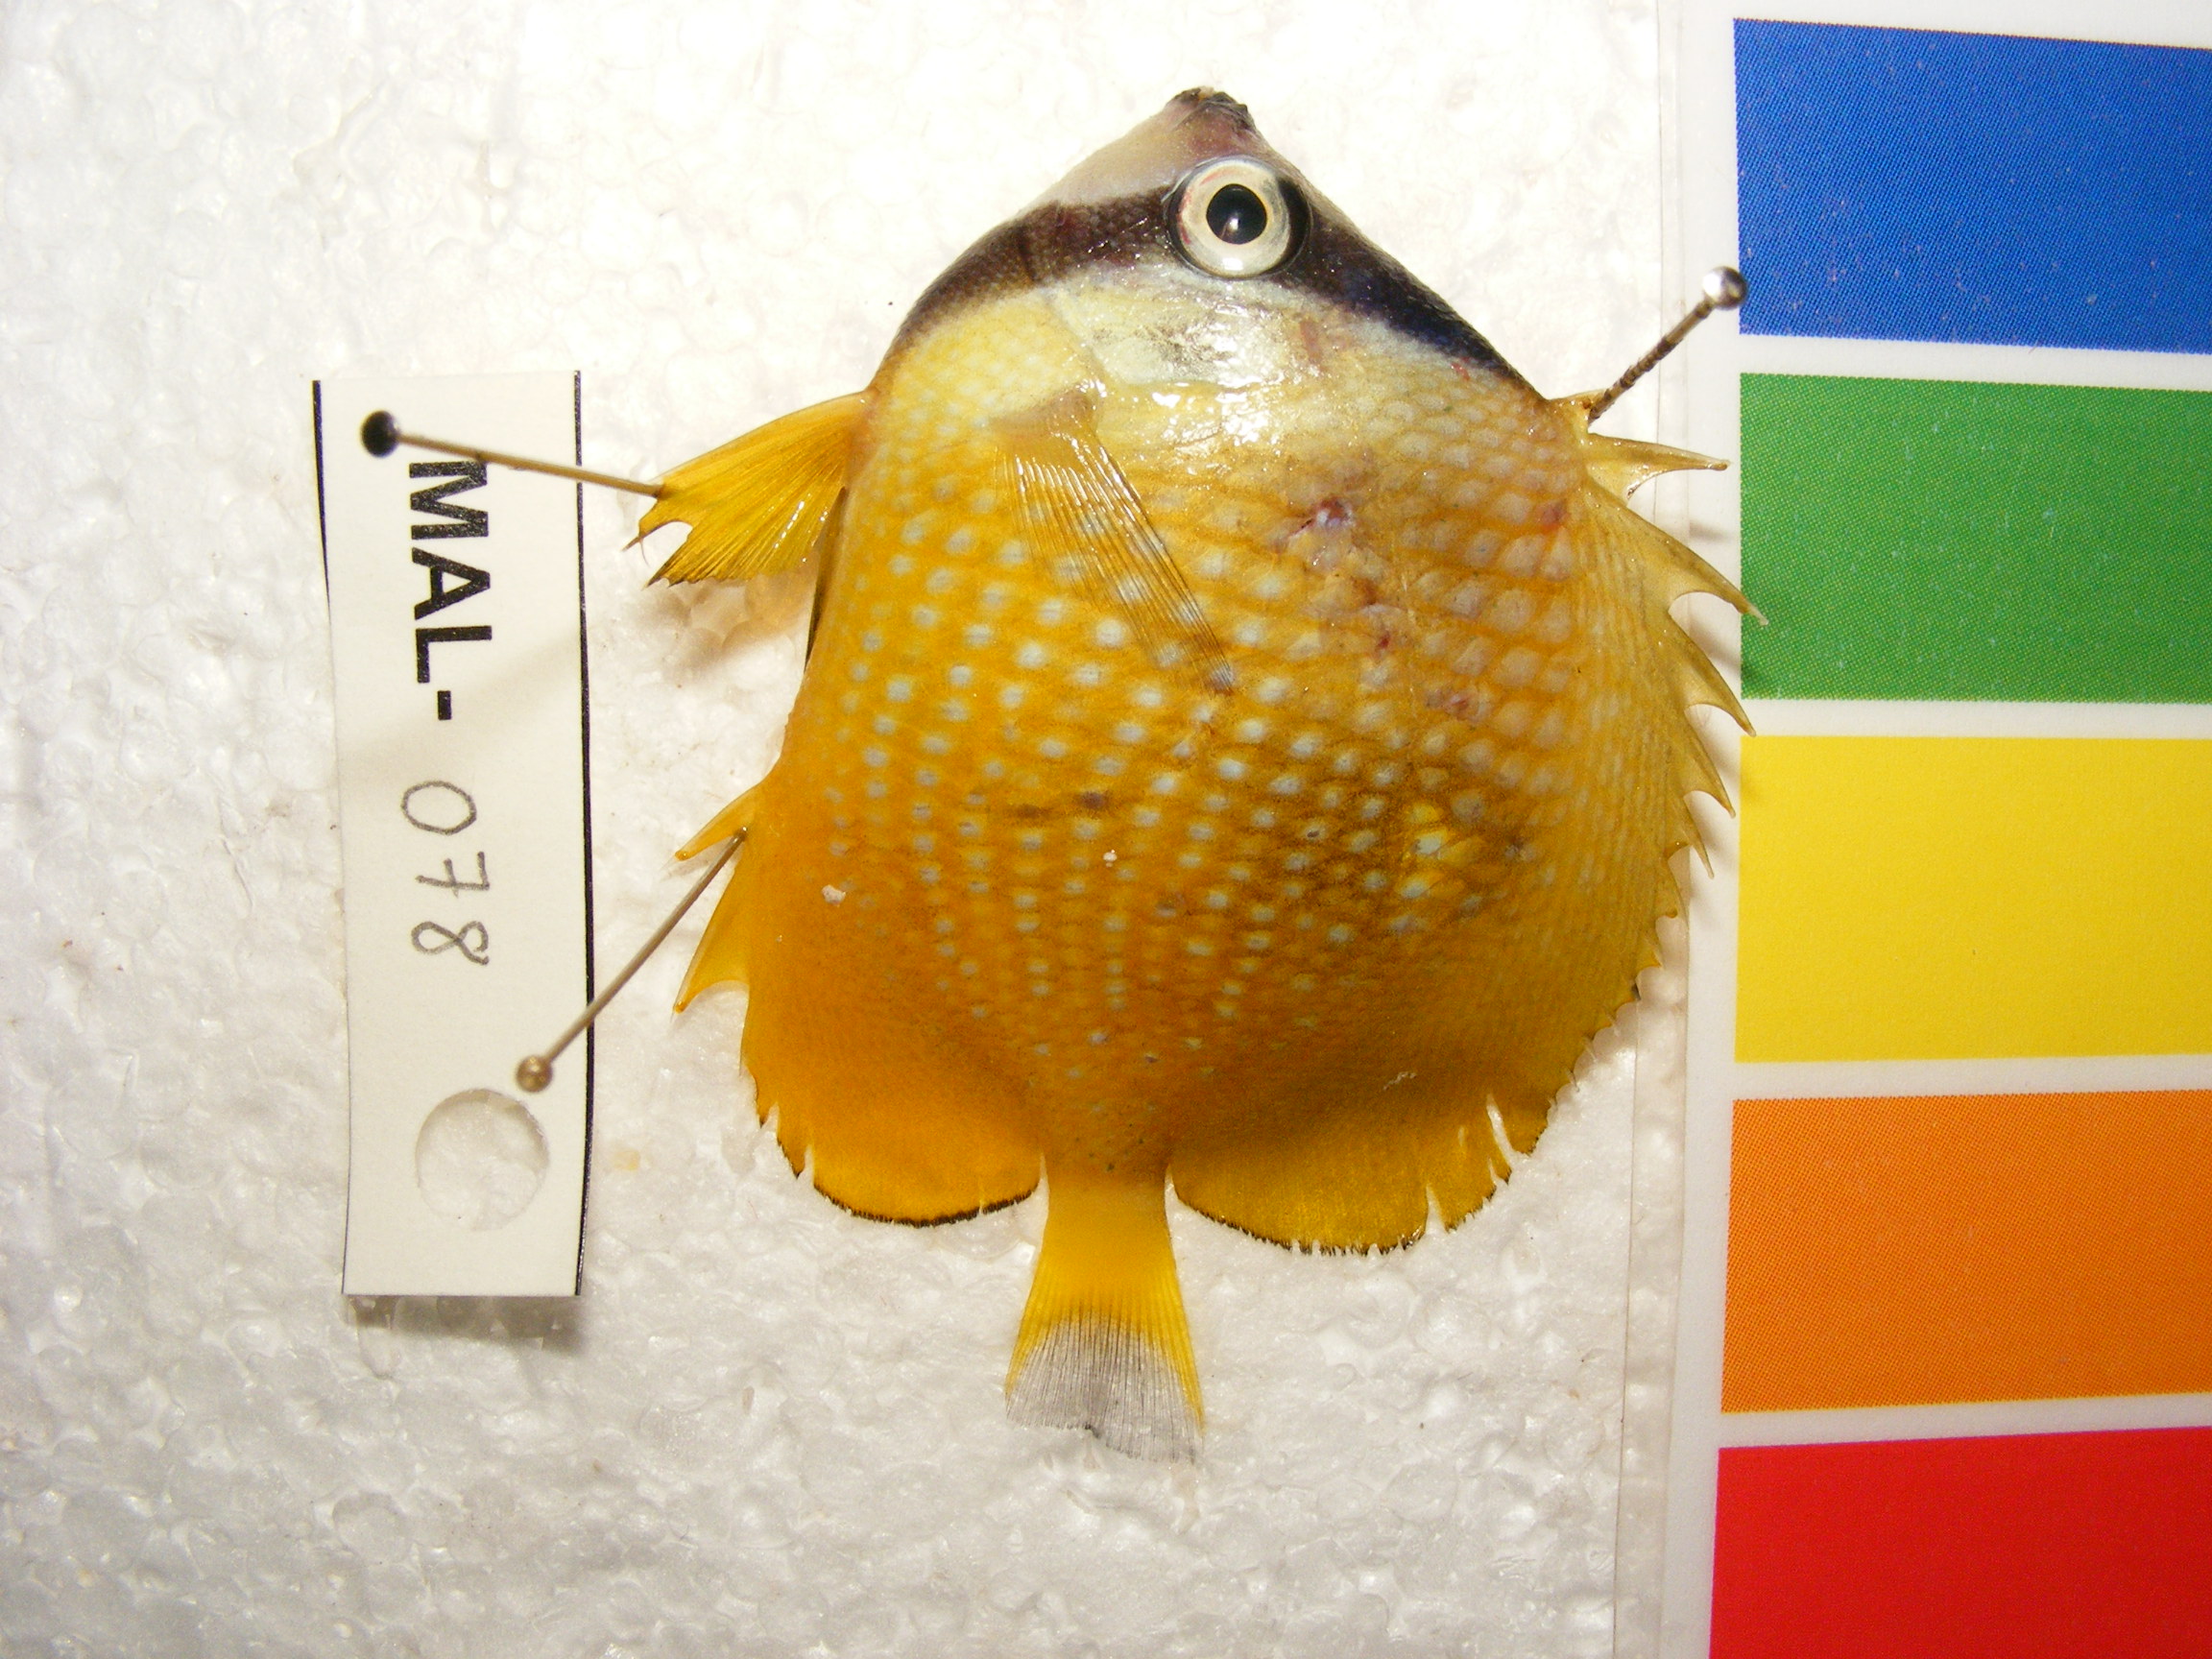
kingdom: Animalia
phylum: Chordata
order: Perciformes
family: Chaetodontidae
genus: Chaetodon
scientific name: Chaetodon kleinii
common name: Klein's butterflyfish
